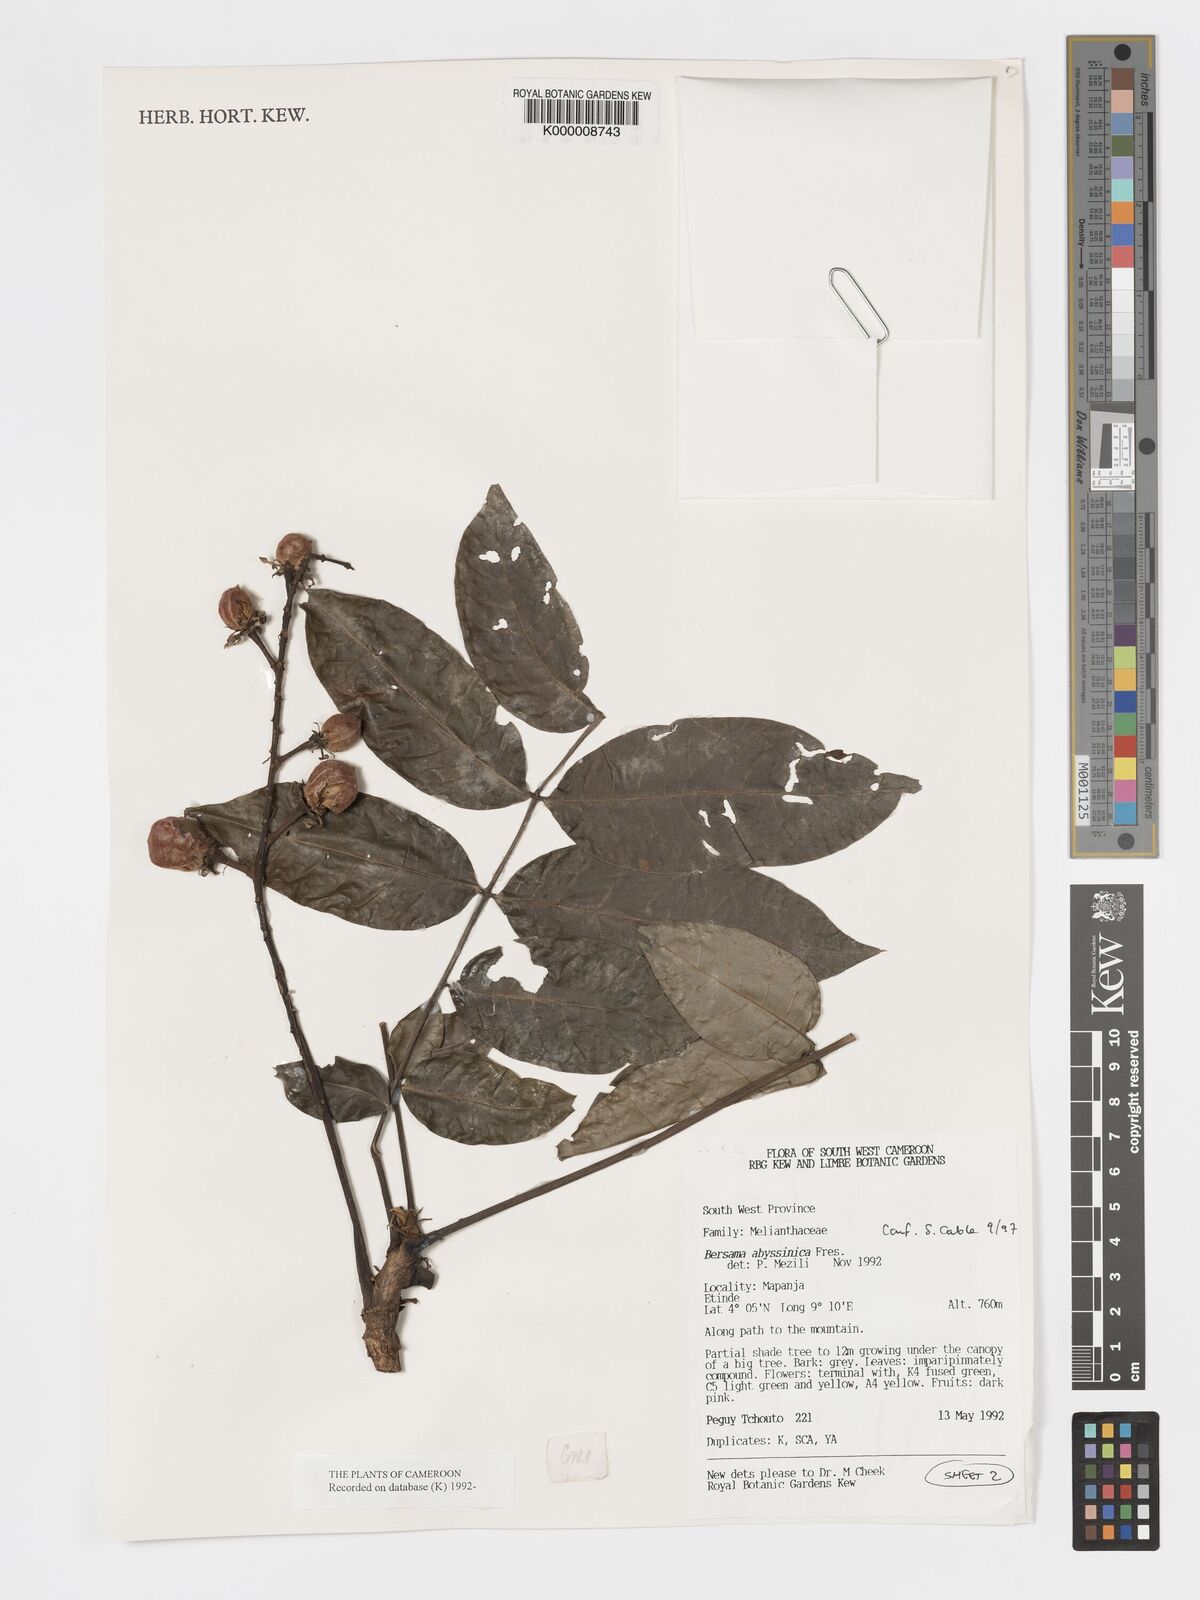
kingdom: Plantae
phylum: Tracheophyta
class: Magnoliopsida
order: Geraniales
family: Melianthaceae
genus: Bersama
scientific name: Bersama abyssinica
